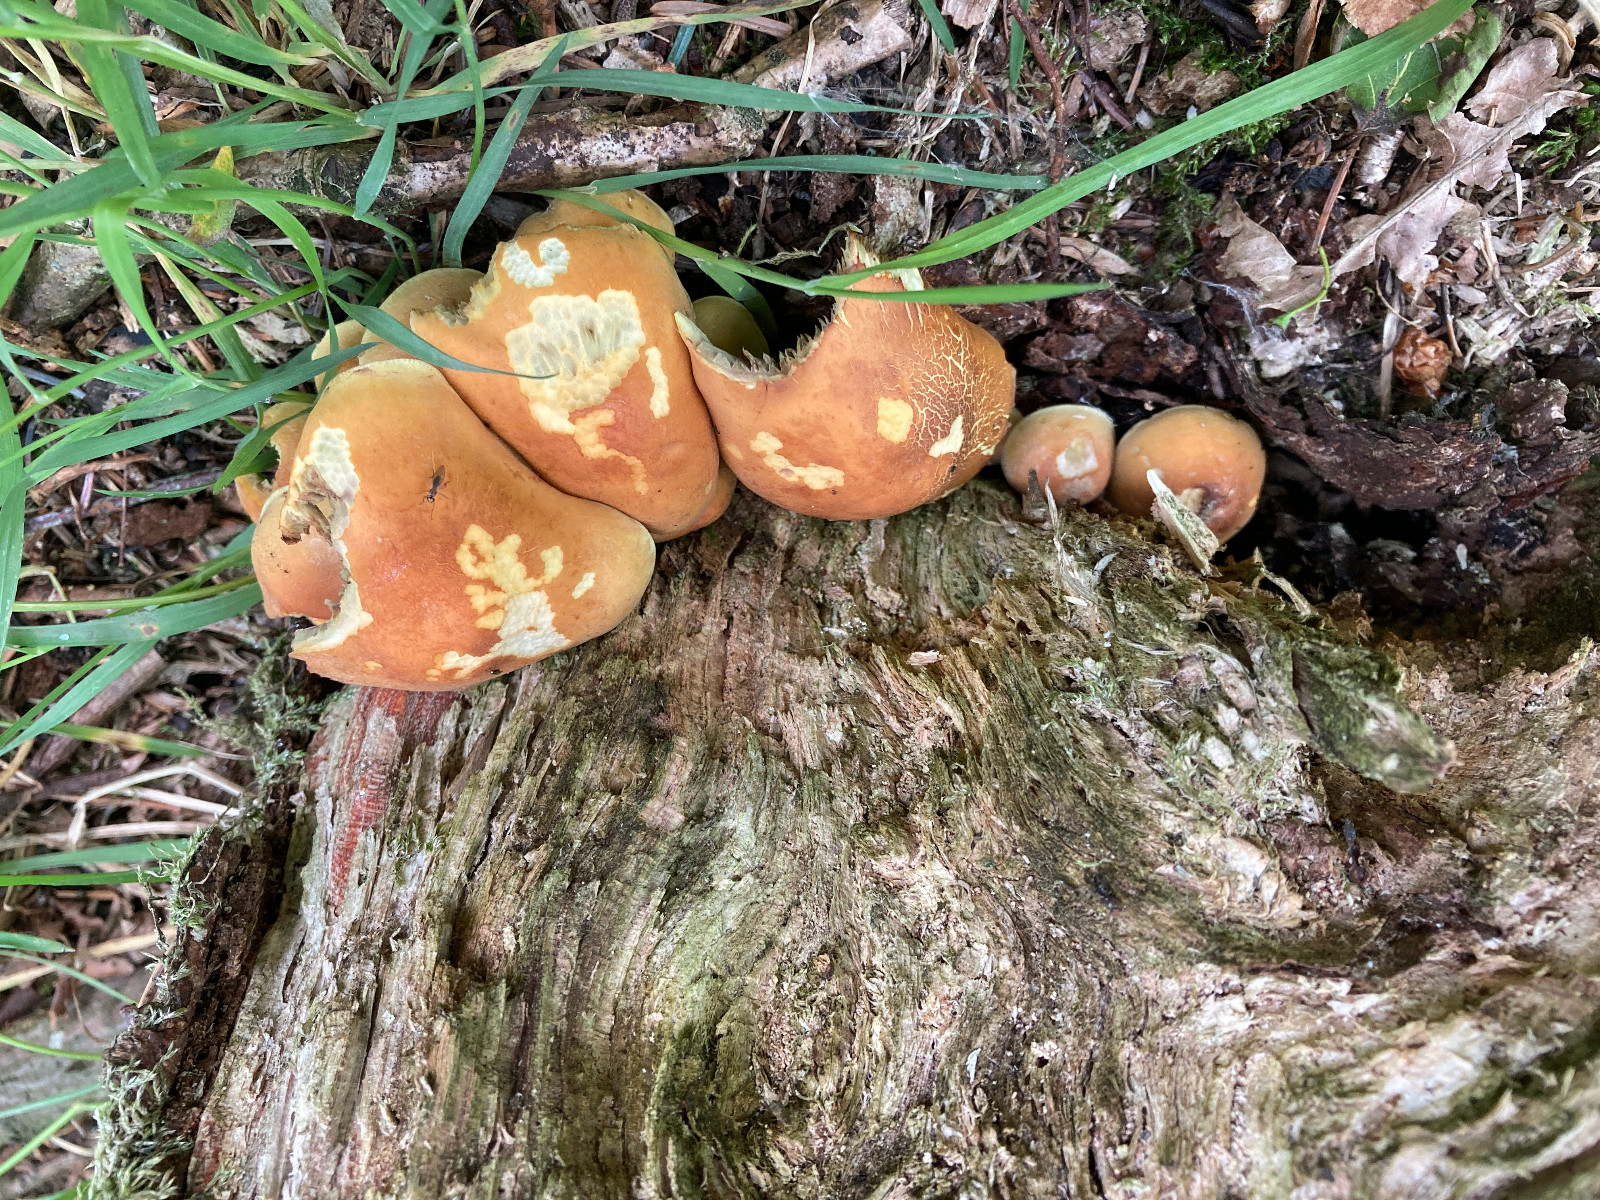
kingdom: Fungi
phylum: Basidiomycota
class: Agaricomycetes
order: Agaricales
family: Strophariaceae
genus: Hypholoma
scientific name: Hypholoma fasciculare
